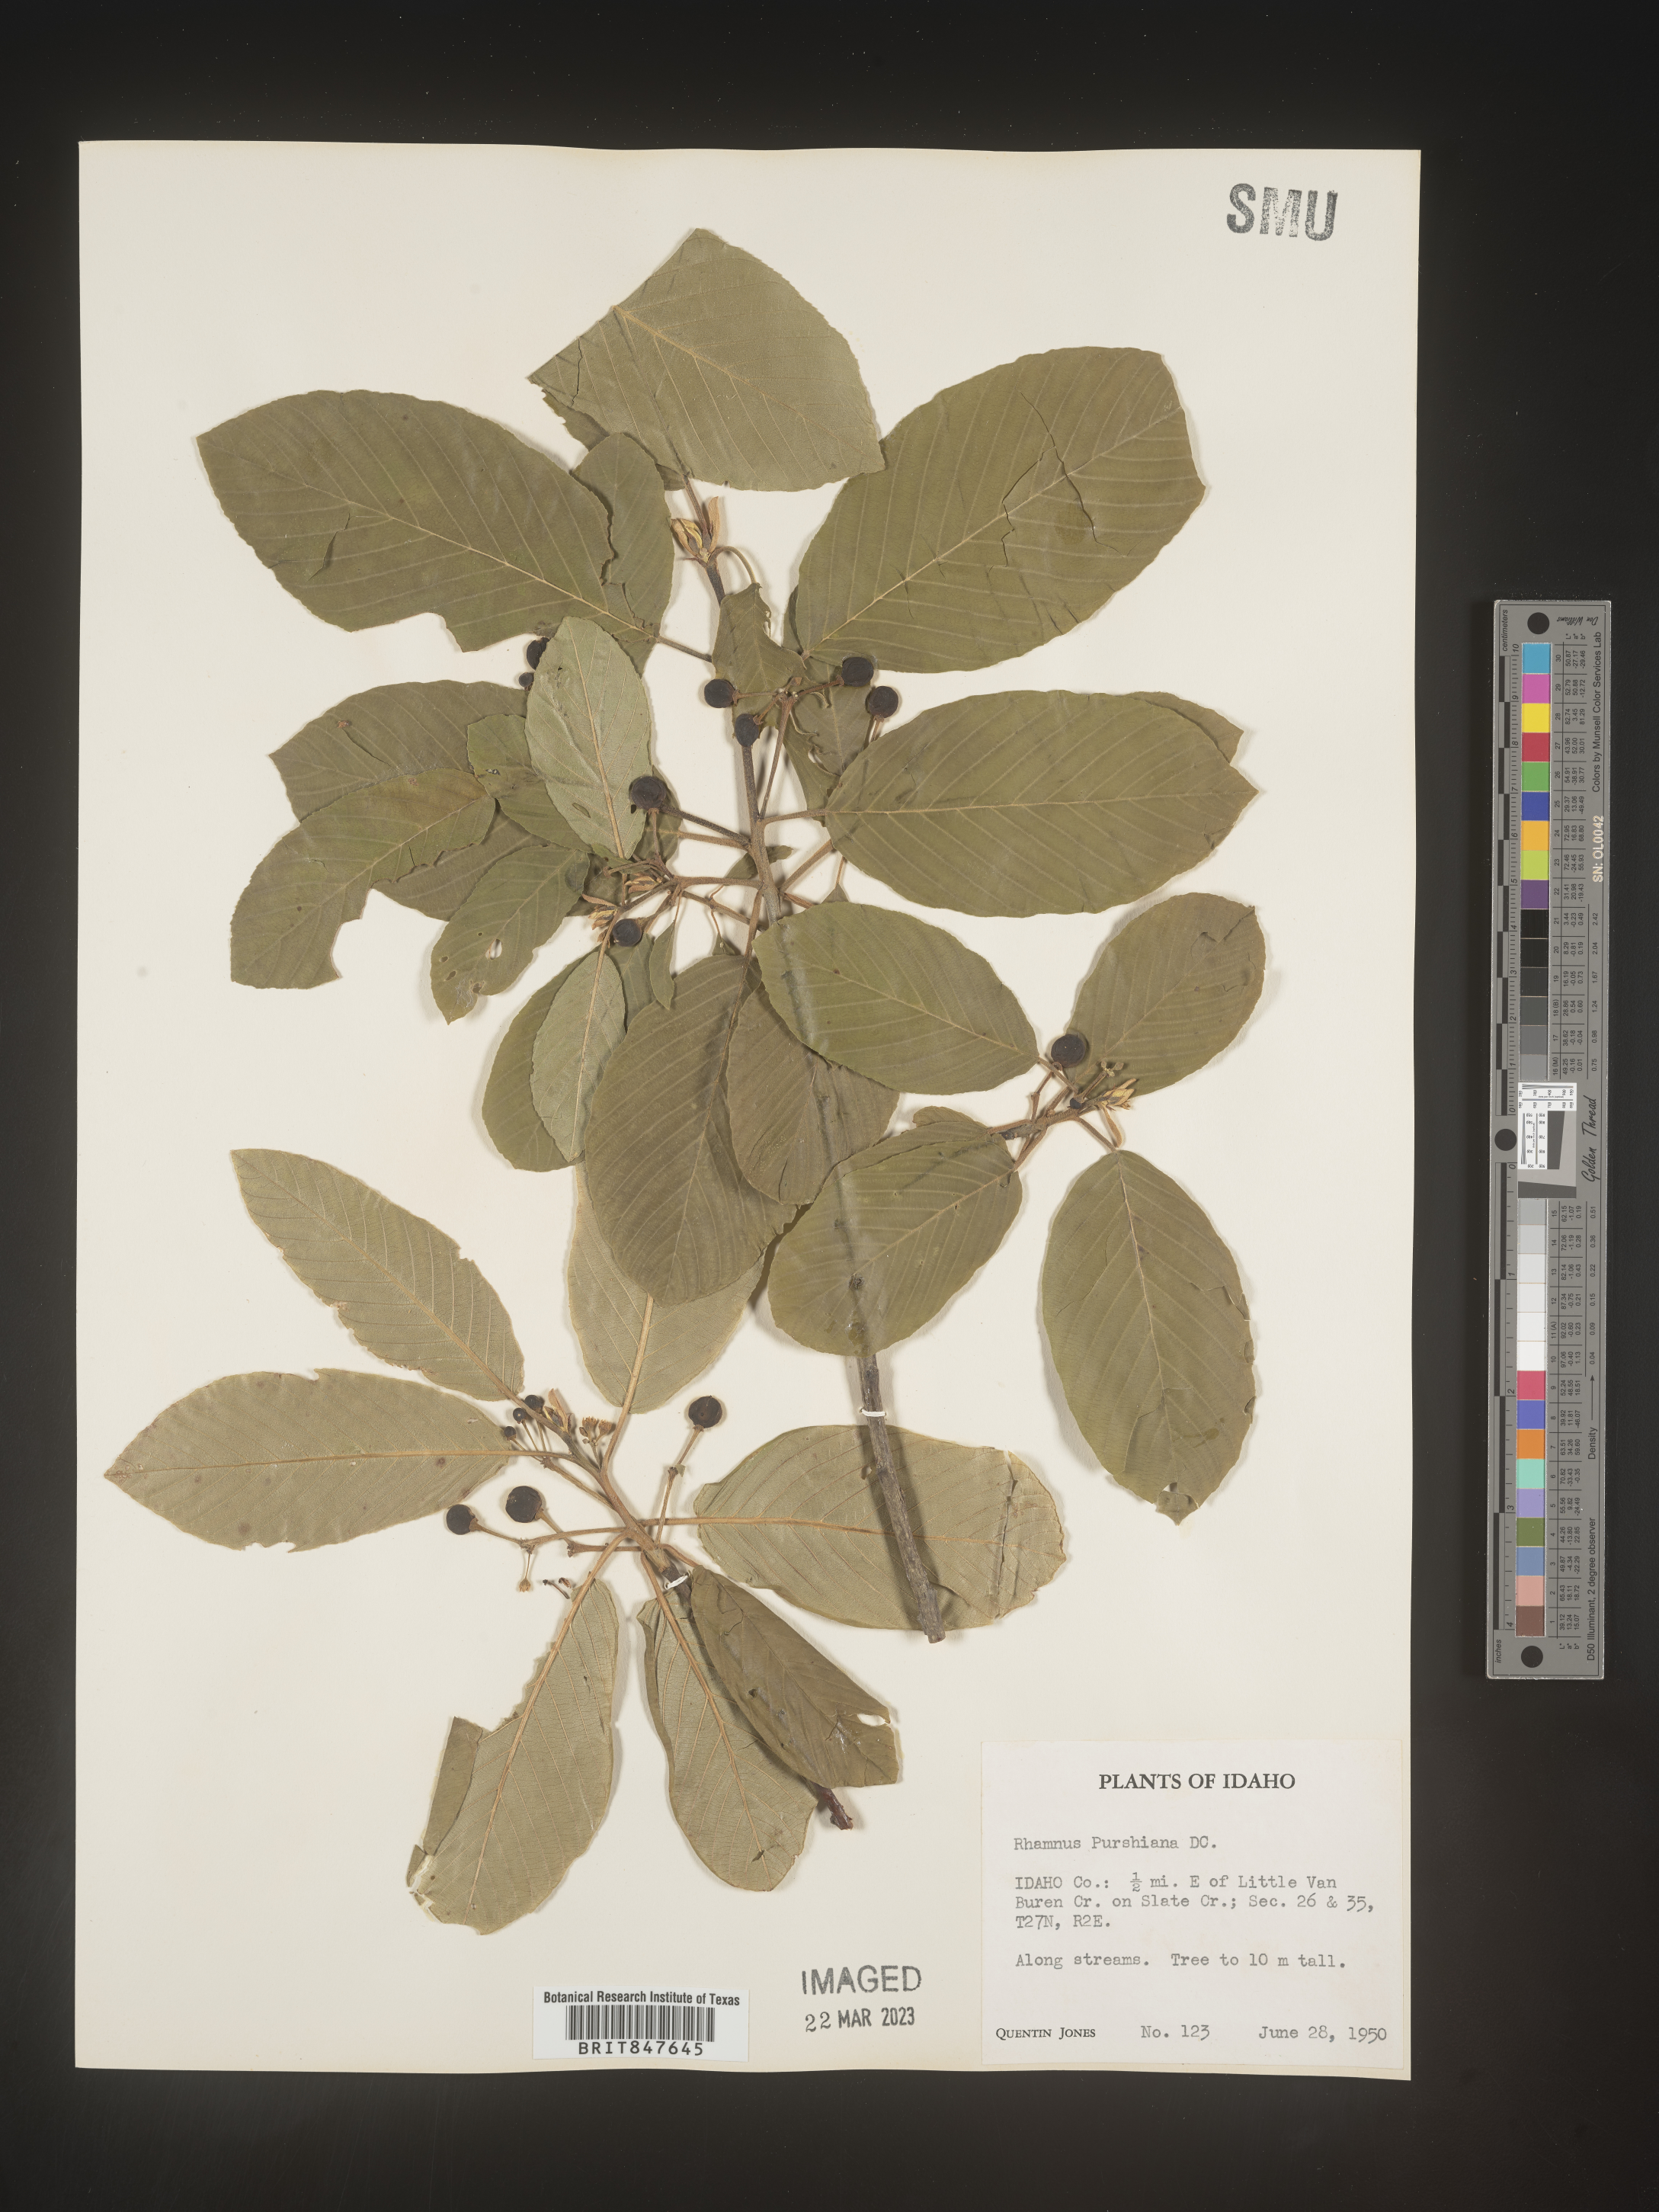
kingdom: Plantae
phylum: Tracheophyta
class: Magnoliopsida
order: Rosales
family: Rhamnaceae
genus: Frangula
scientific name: Frangula purshiana
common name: Cascara buckthorn
